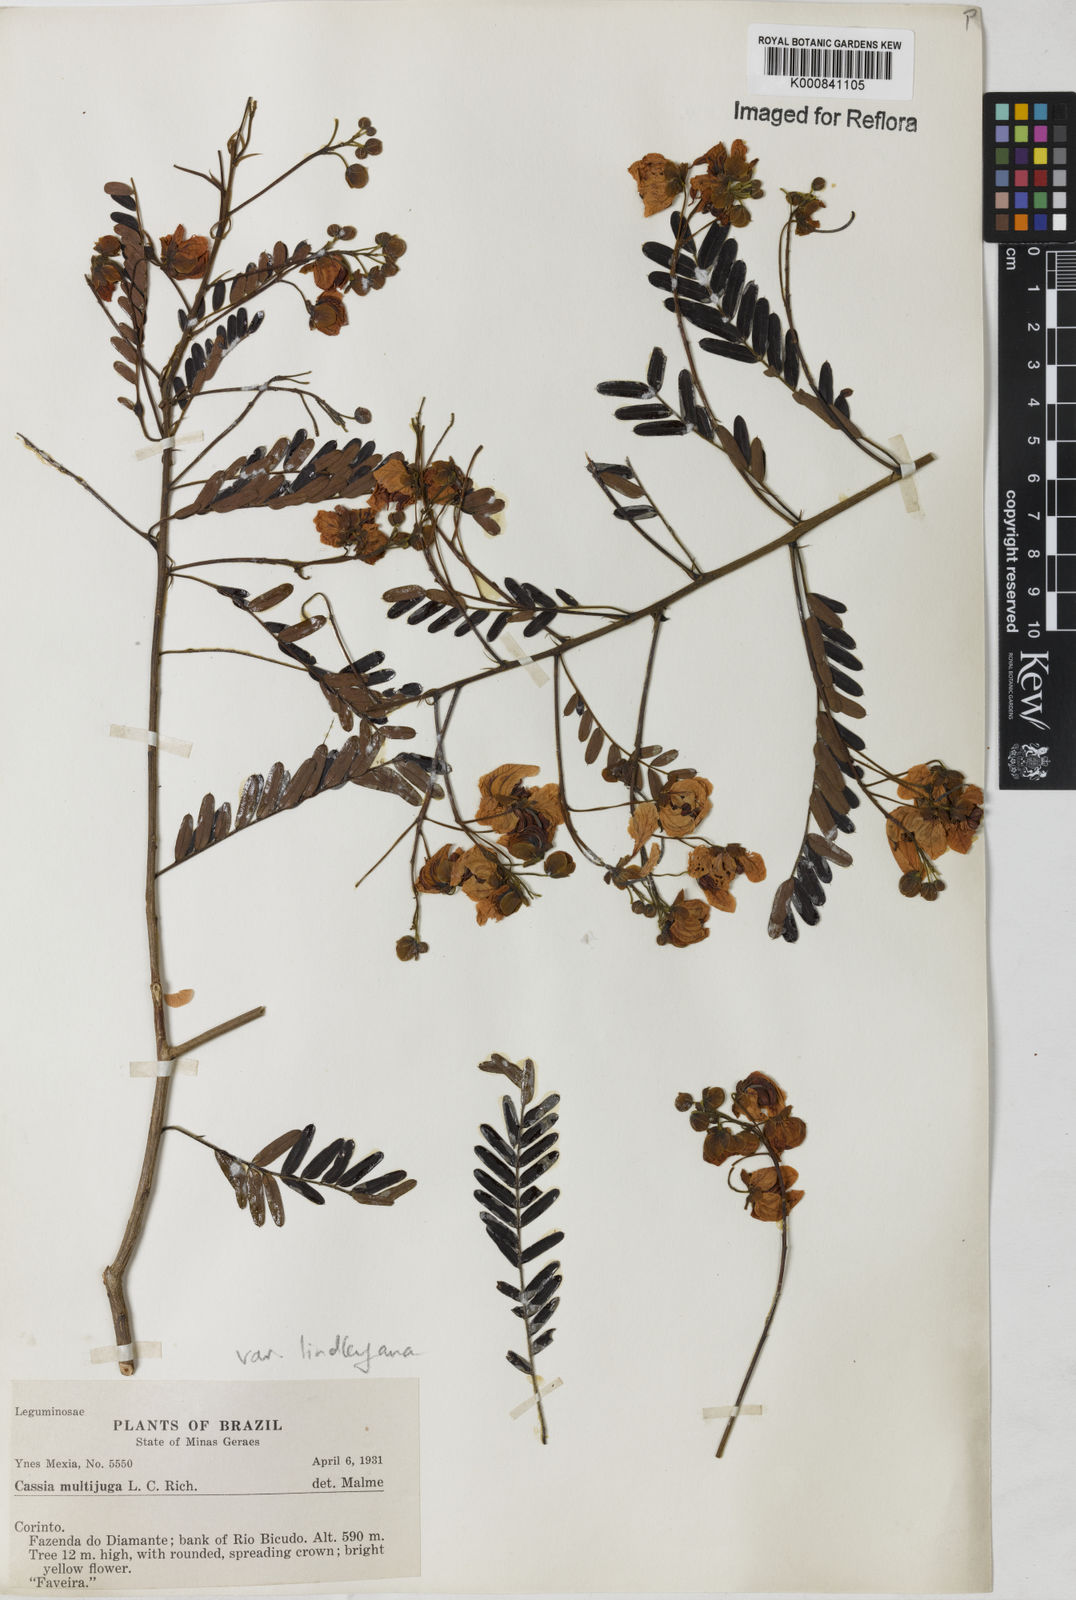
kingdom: Plantae
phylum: Tracheophyta
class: Magnoliopsida
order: Fabales
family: Fabaceae
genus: Senna
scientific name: Senna multijuga
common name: False sicklepod
